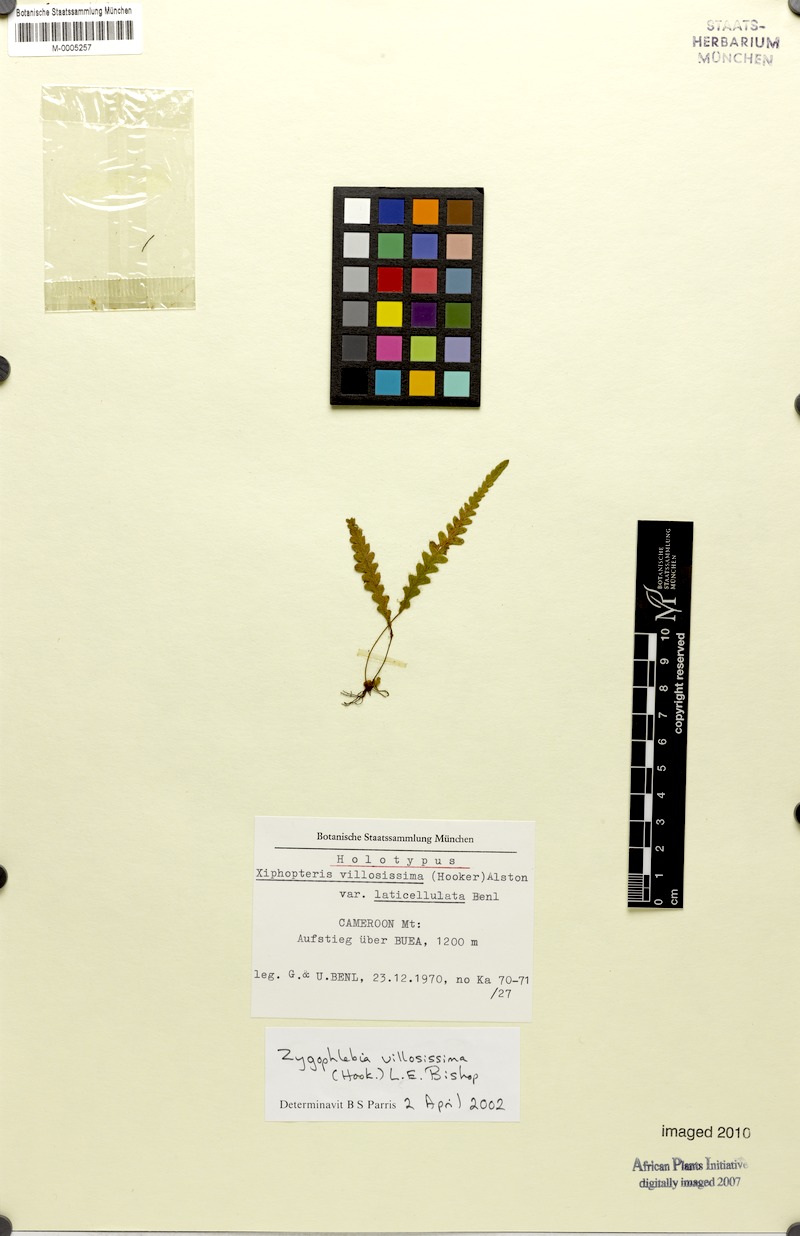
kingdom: Plantae
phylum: Tracheophyta
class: Polypodiopsida
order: Polypodiales
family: Polypodiaceae
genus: Enterosora
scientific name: Enterosora villosissima
